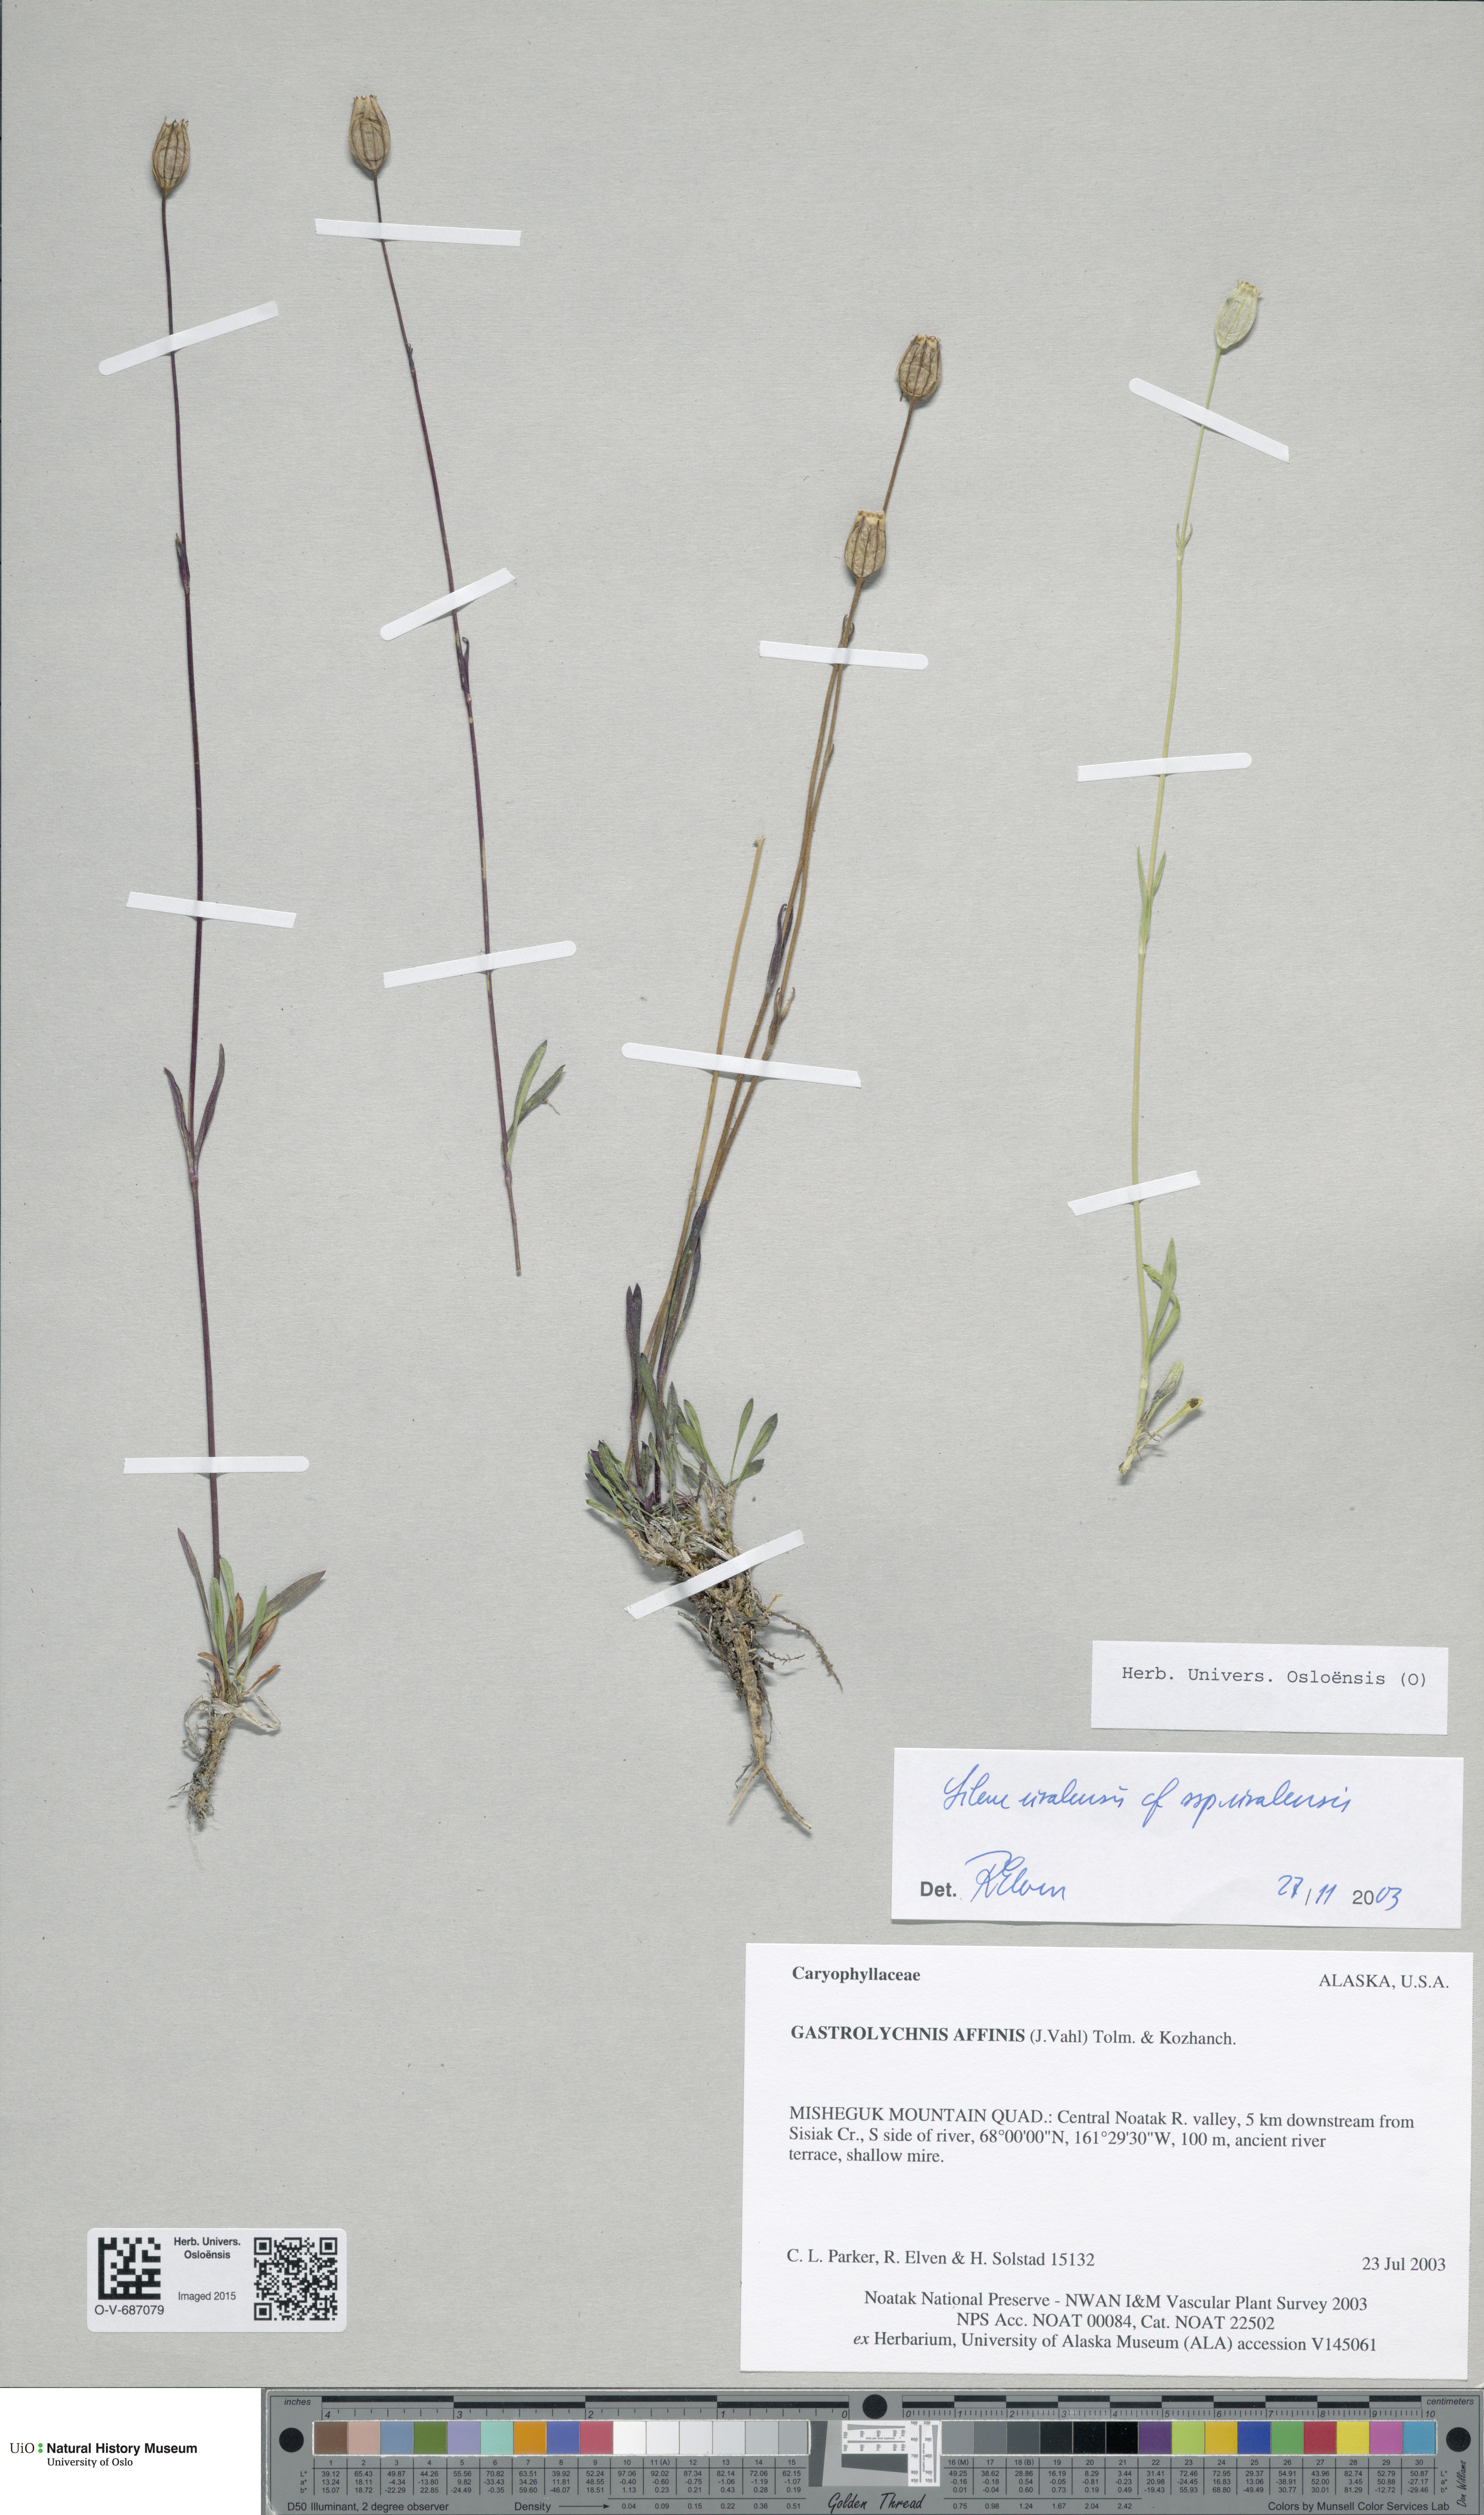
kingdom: Plantae
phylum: Tracheophyta
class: Magnoliopsida
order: Caryophyllales
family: Caryophyllaceae
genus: Silene
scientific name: Silene uralensis
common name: Nodding campion
